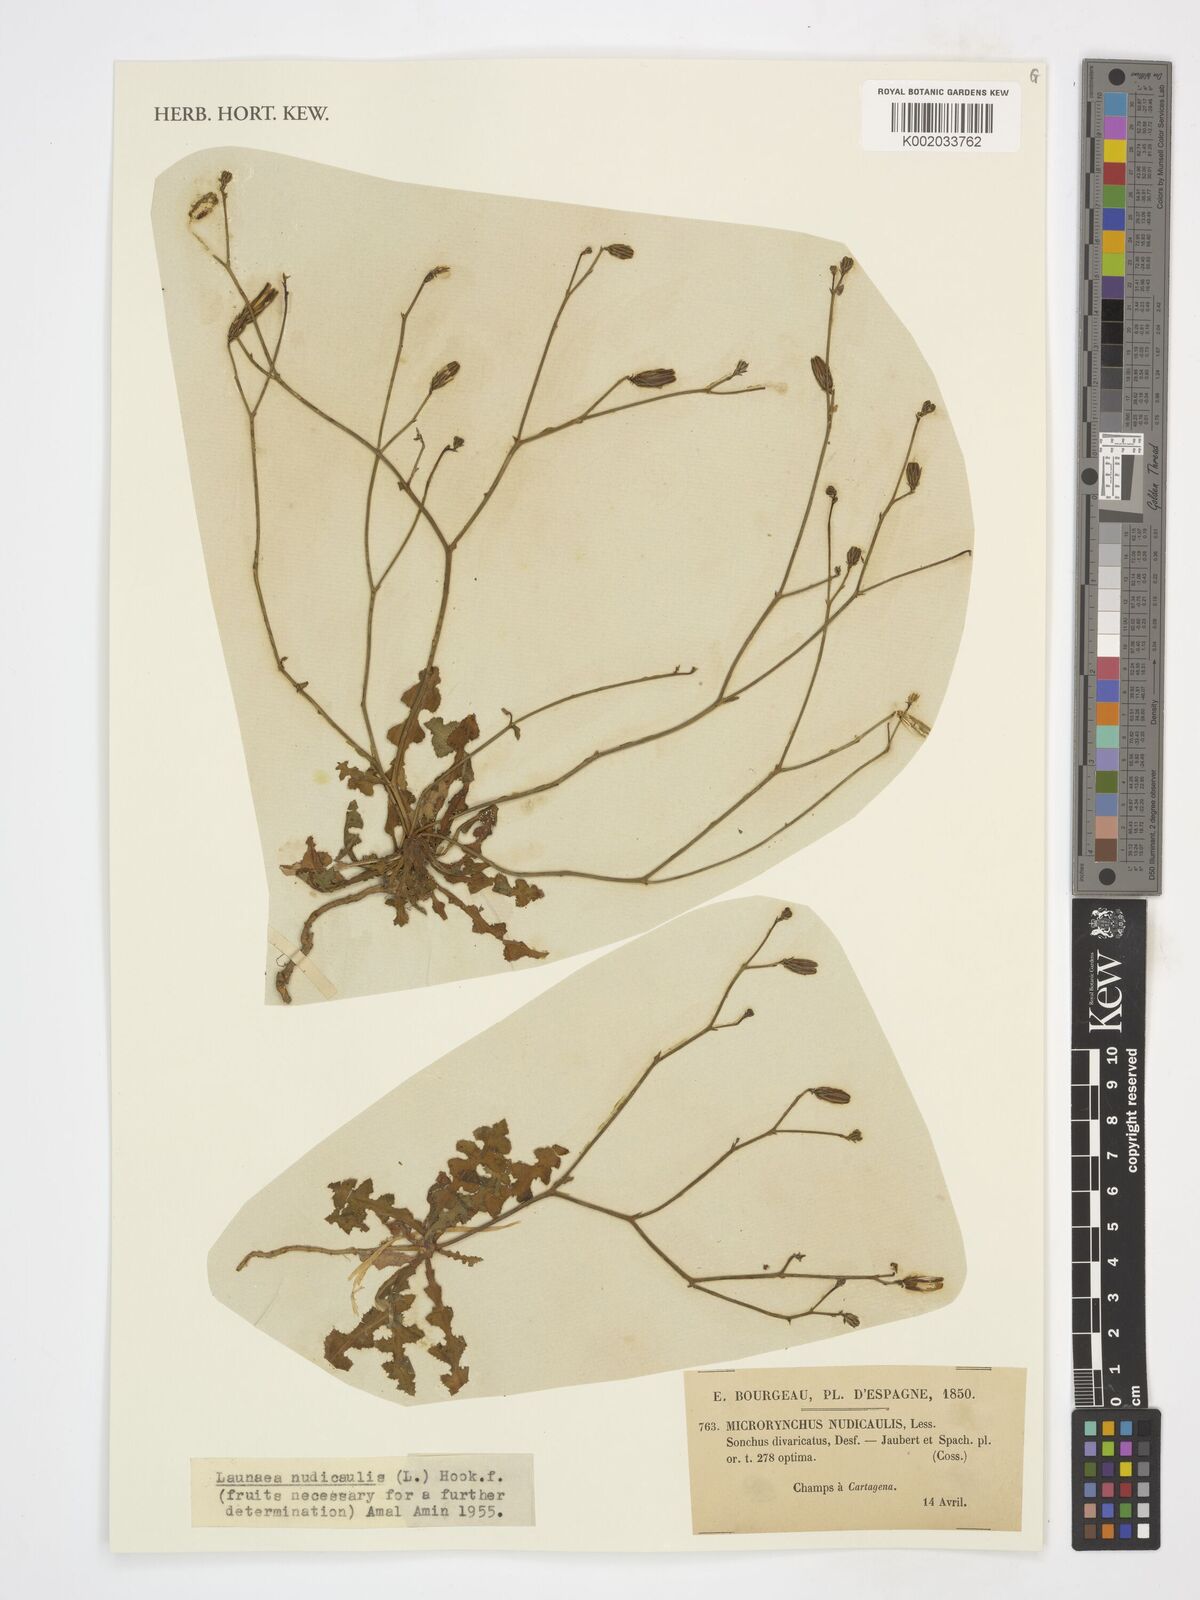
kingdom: Plantae
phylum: Tracheophyta
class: Magnoliopsida
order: Asterales
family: Asteraceae
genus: Launaea
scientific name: Launaea nudicaulis
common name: Naked launaea
